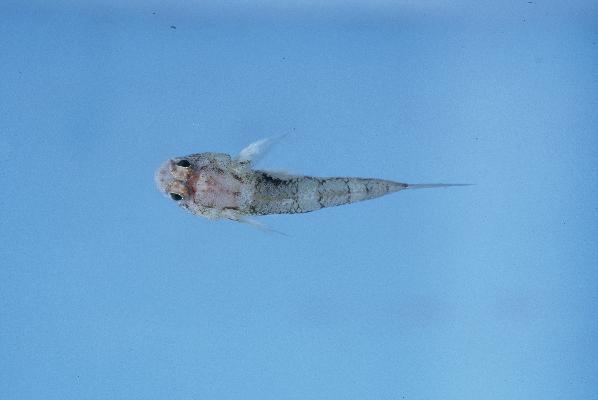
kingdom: Animalia
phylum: Chordata
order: Perciformes
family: Gobiidae
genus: Cabillus
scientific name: Cabillus
